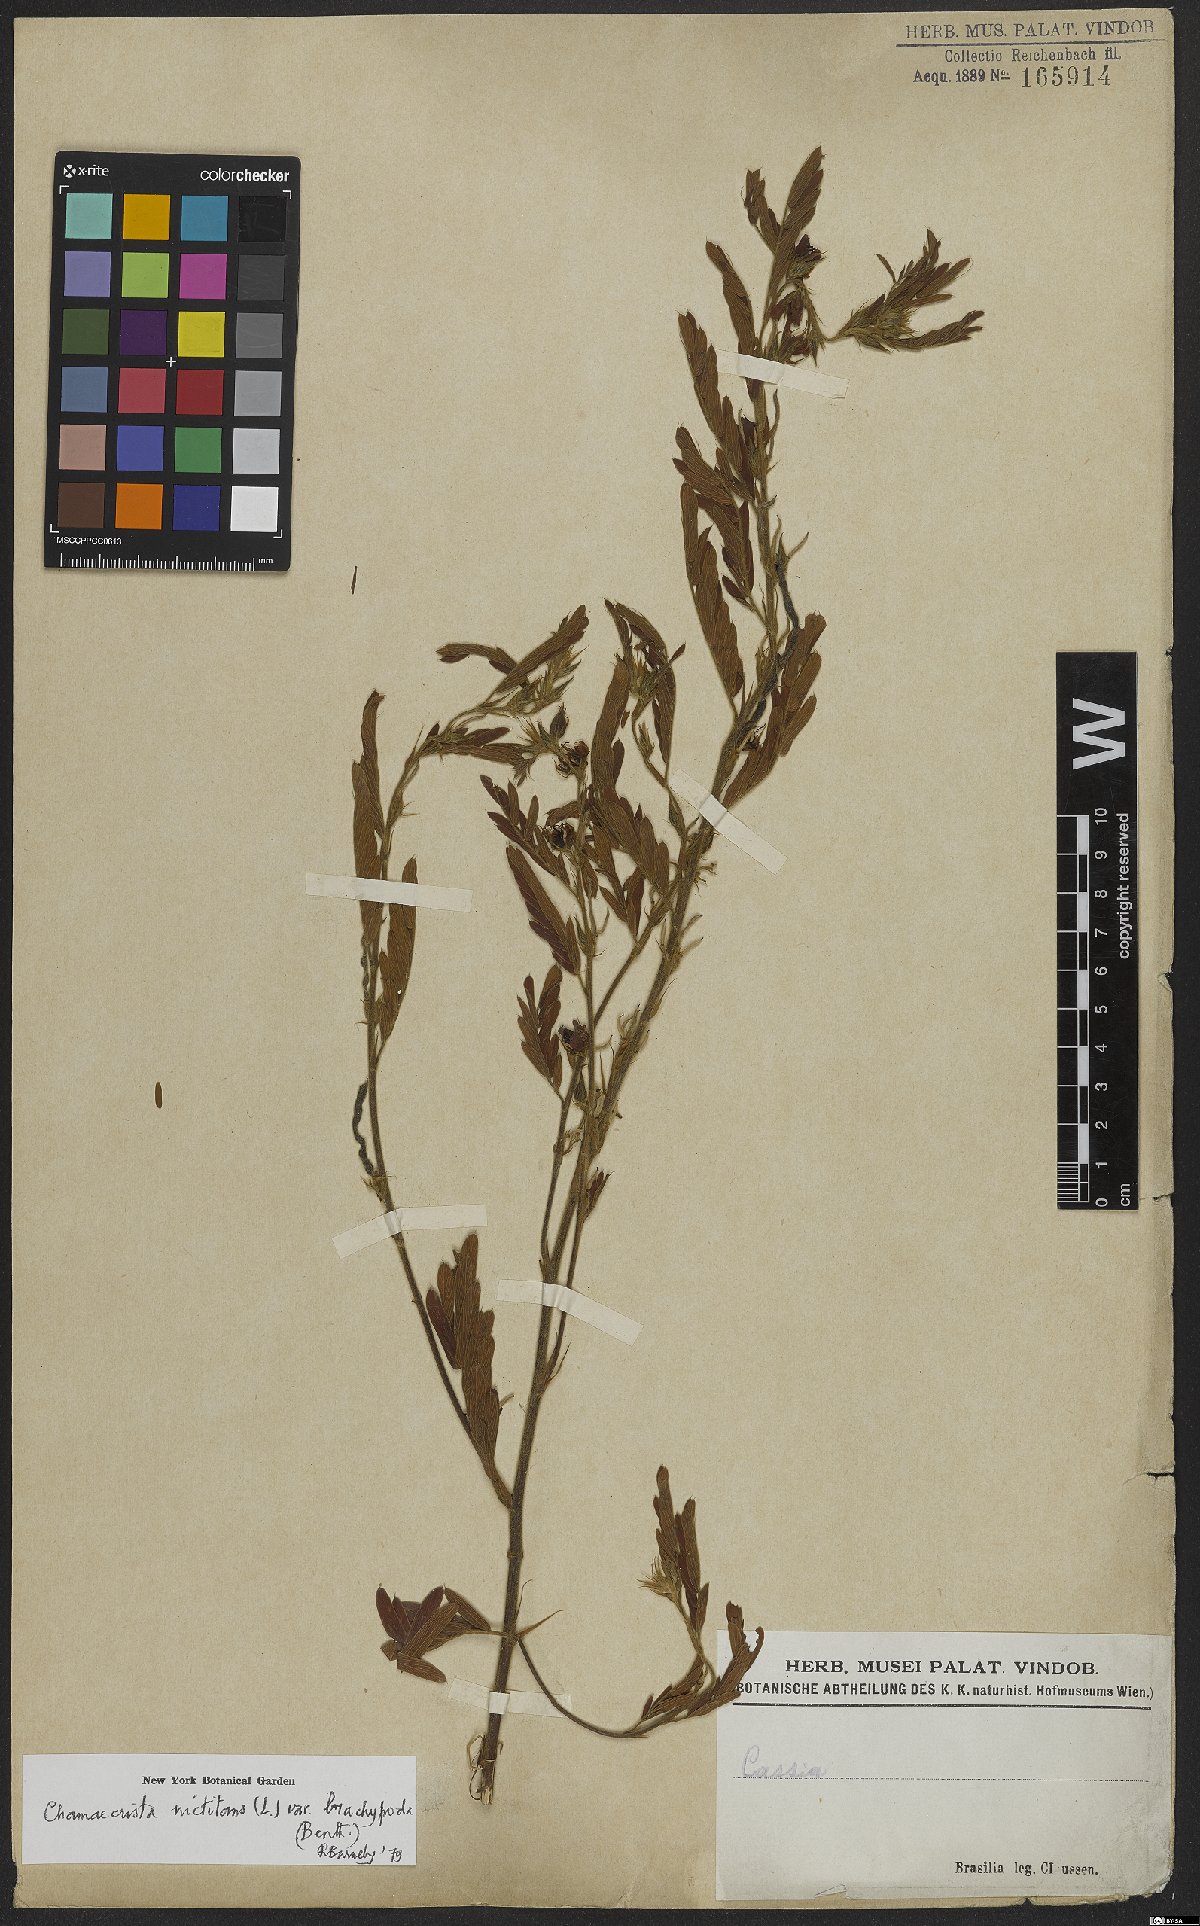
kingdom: Plantae
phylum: Tracheophyta
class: Magnoliopsida
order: Fabales
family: Fabaceae
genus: Chamaecrista
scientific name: Chamaecrista nictitans
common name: Sensitive cassia
